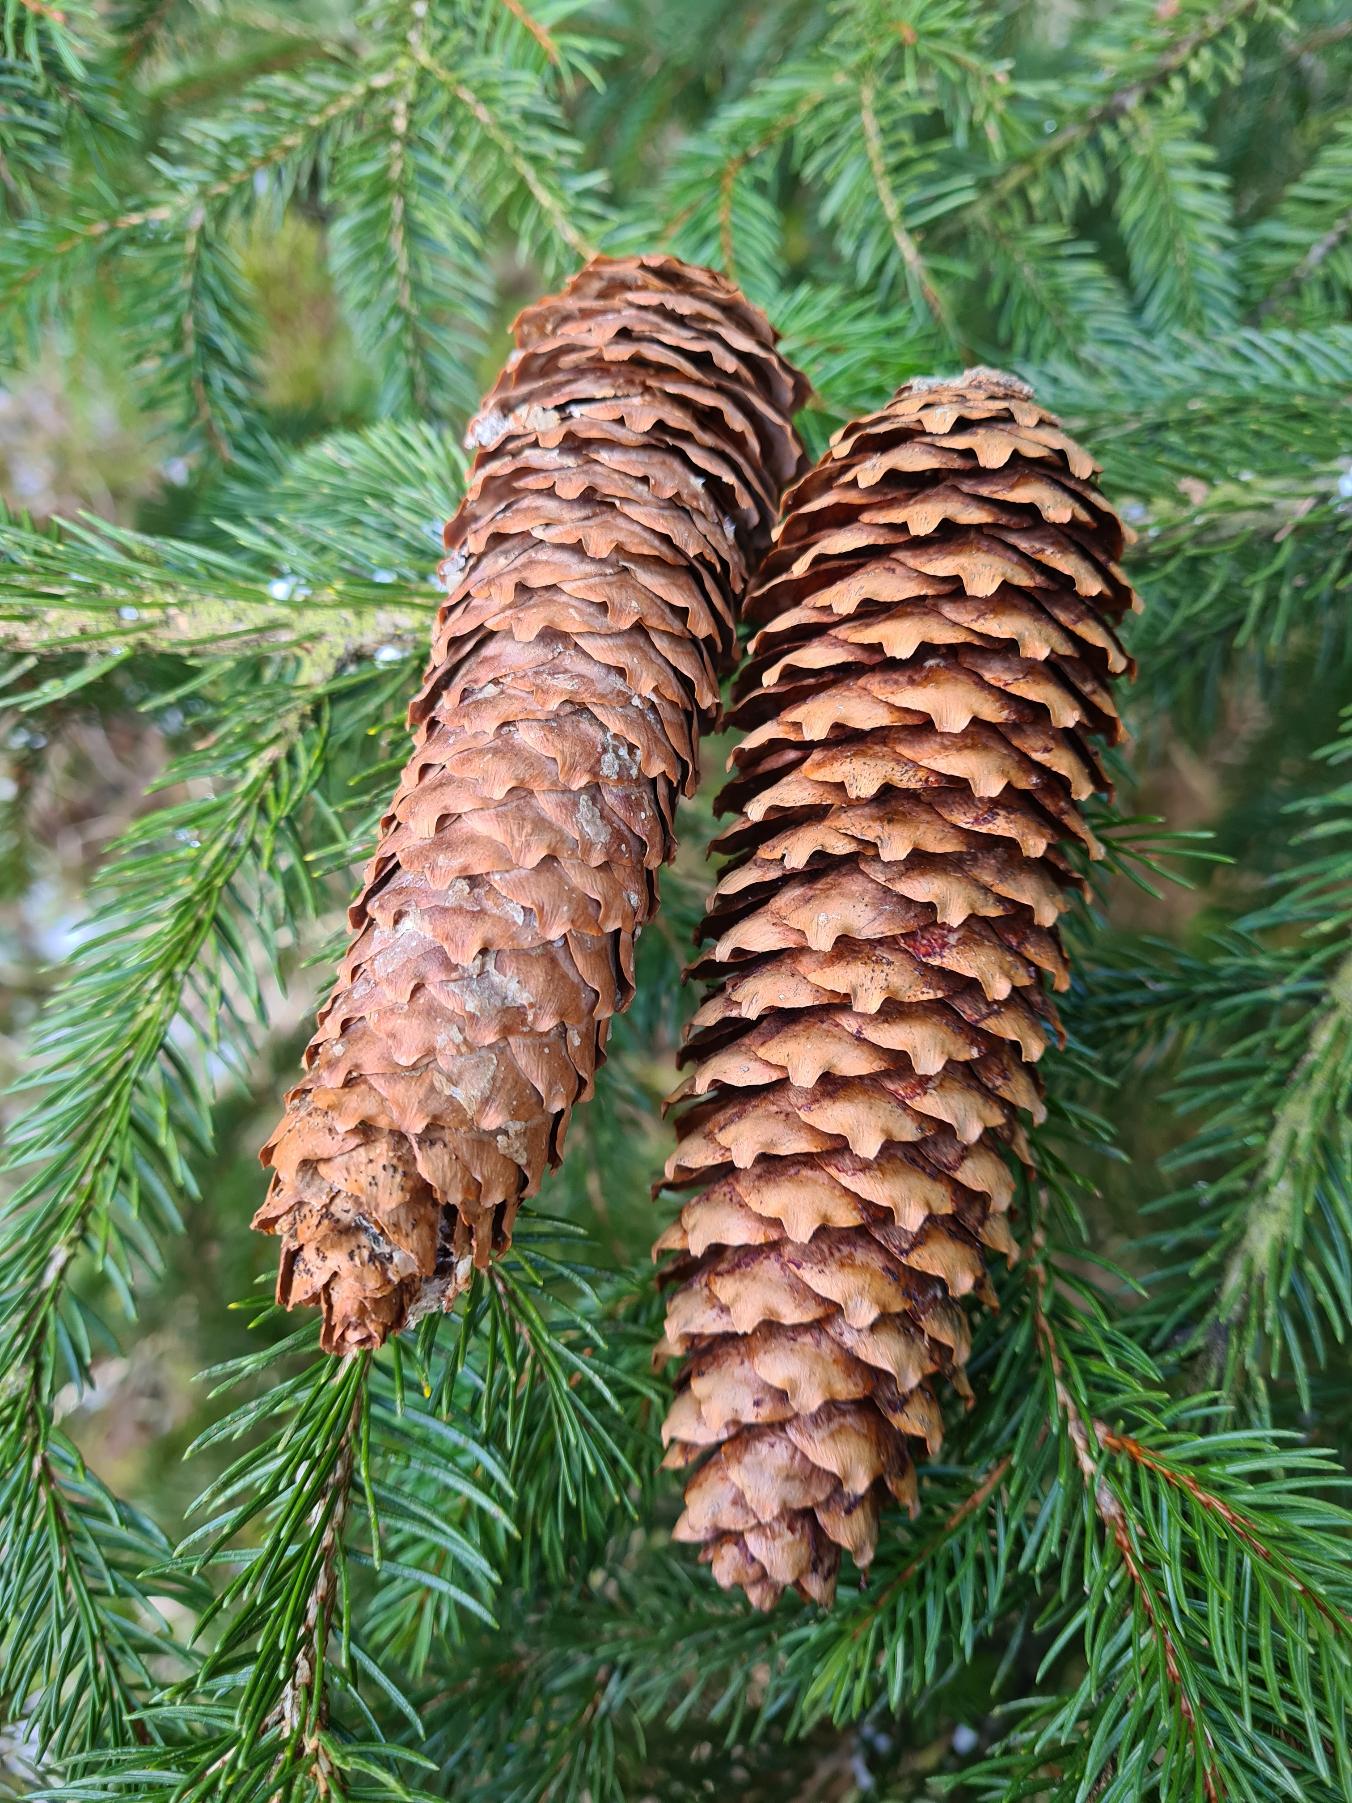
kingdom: Plantae
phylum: Tracheophyta
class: Pinopsida
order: Pinales
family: Pinaceae
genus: Picea
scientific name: Picea abies
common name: Rød-gran
